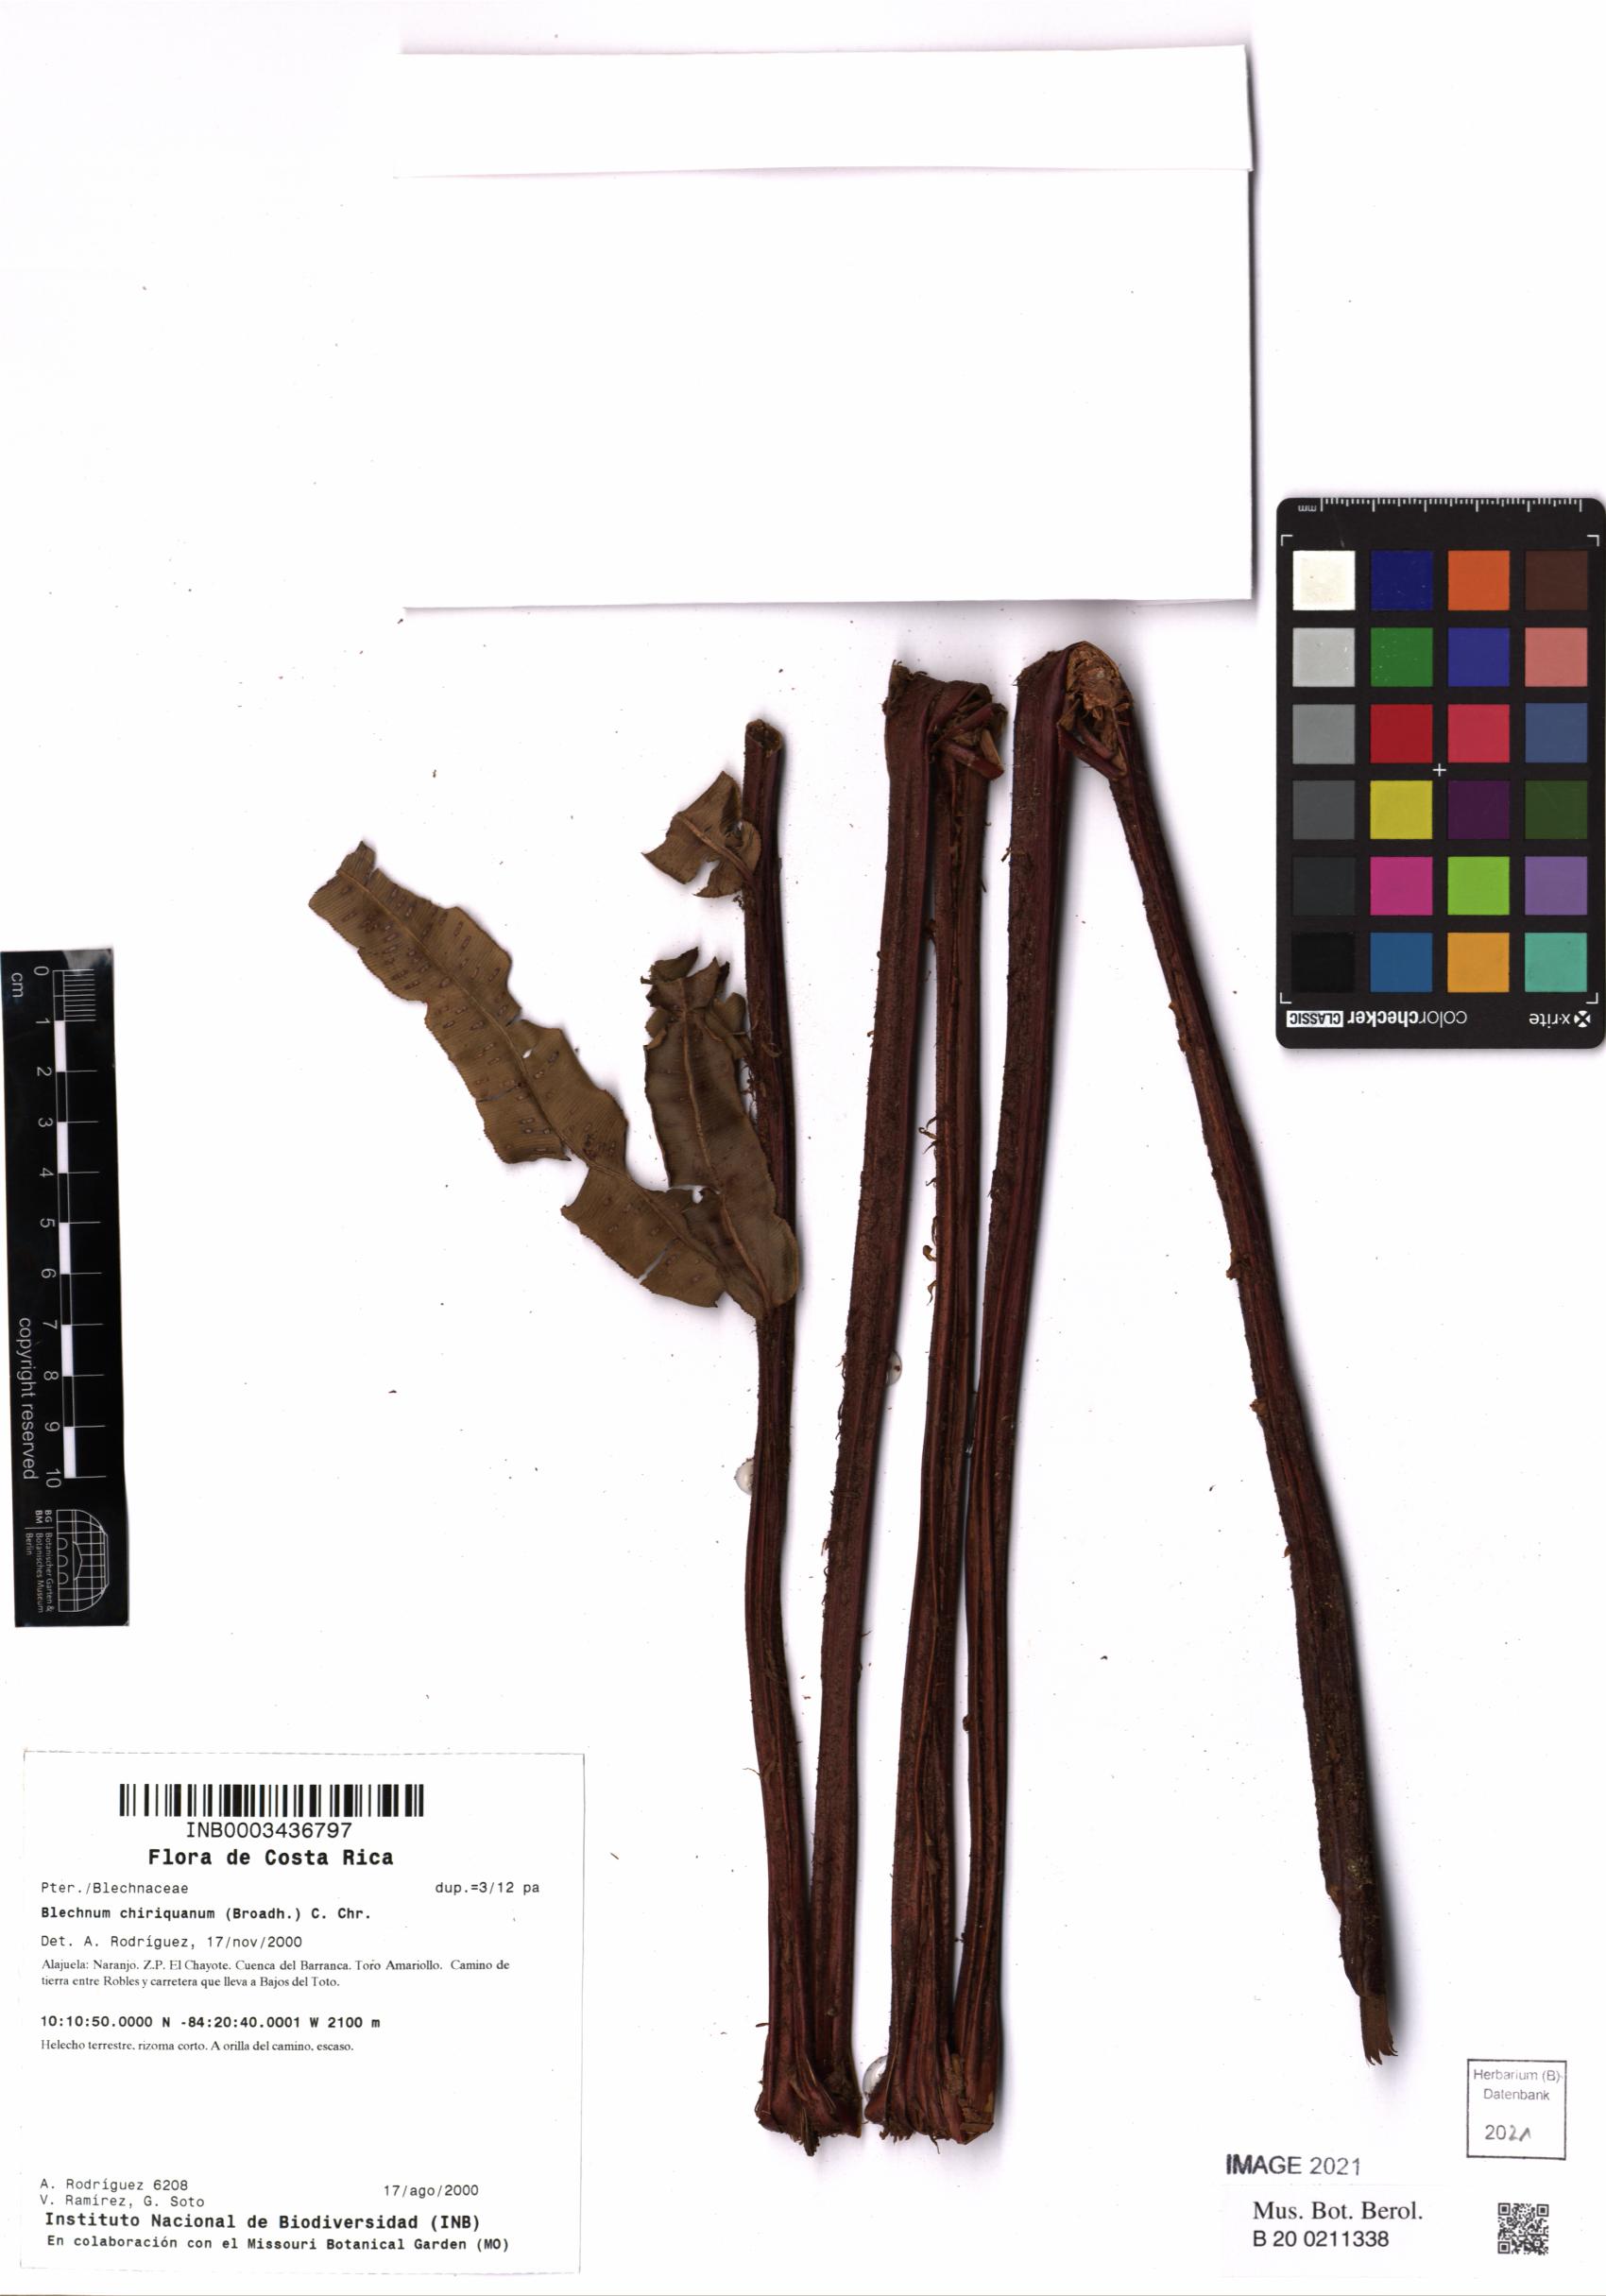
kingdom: Plantae
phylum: Tracheophyta
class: Polypodiopsida
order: Polypodiales
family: Blechnaceae
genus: Parablechnum
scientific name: Parablechnum chiriquanum
